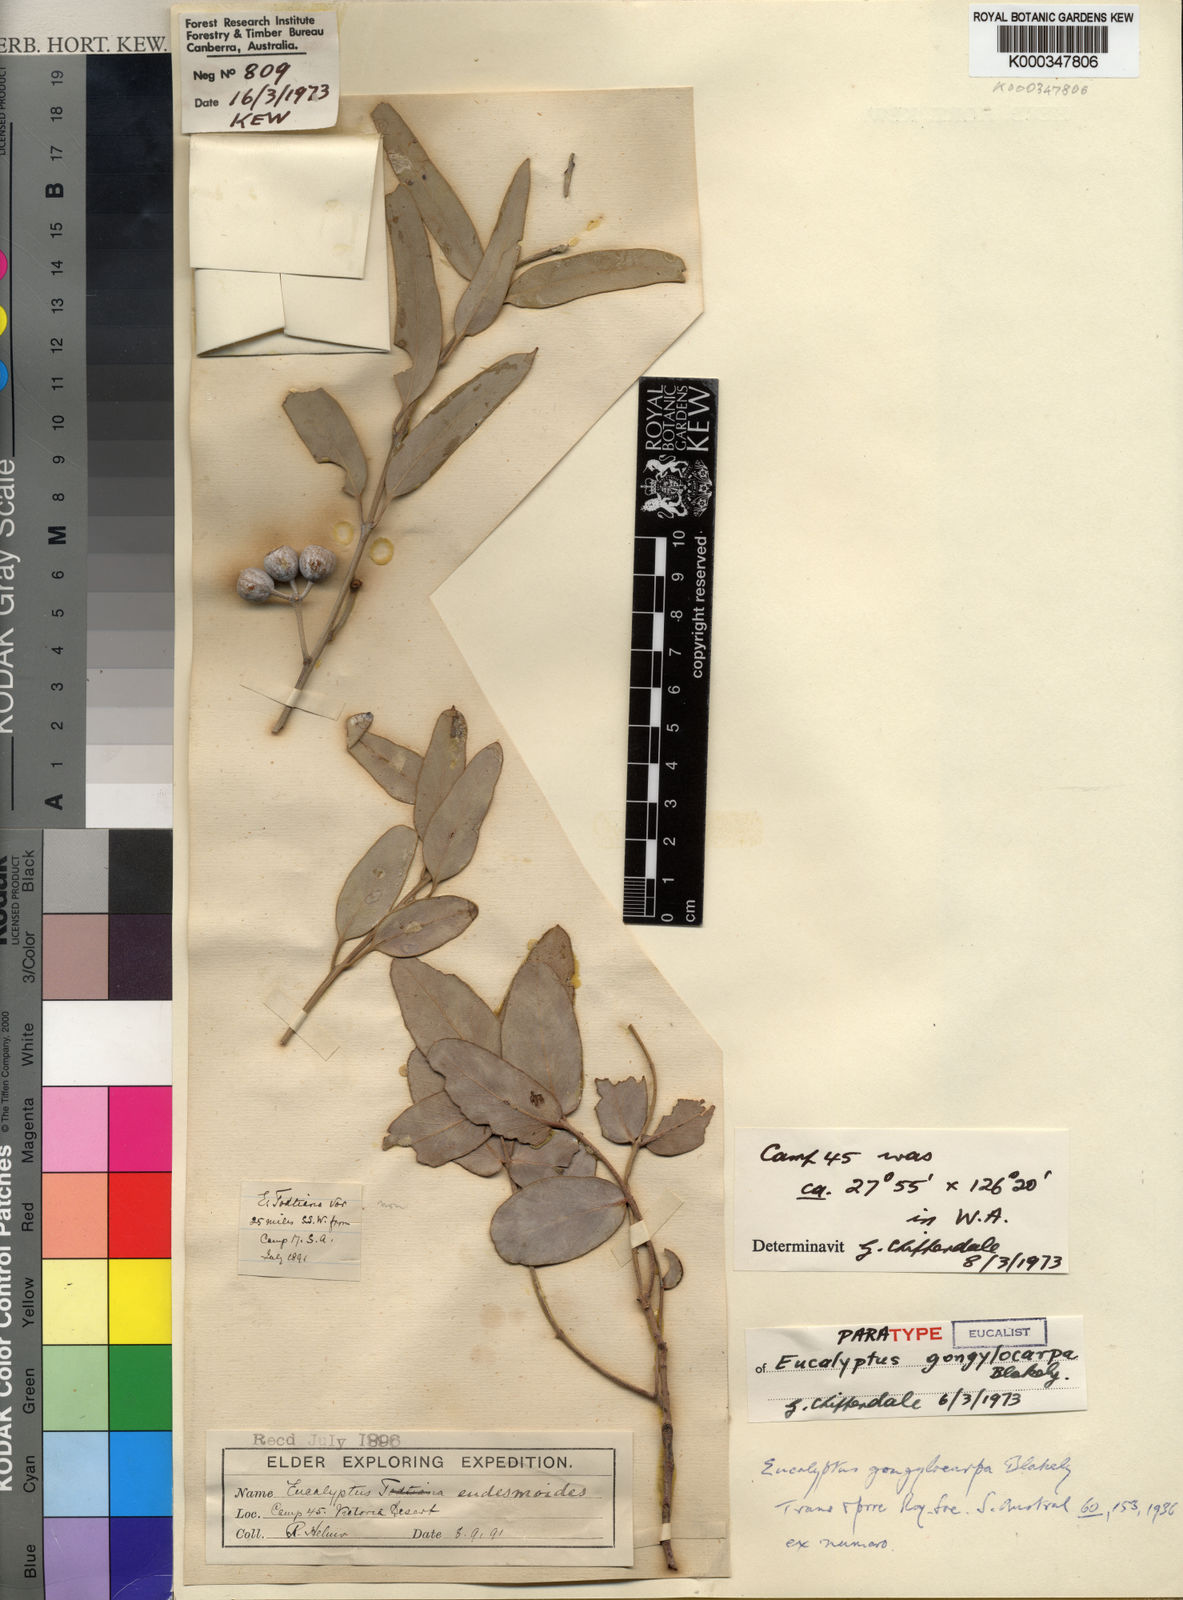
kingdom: Plantae
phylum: Tracheophyta
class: Magnoliopsida
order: Myrtales
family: Myrtaceae
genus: Eucalyptus
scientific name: Eucalyptus gongylocarpa
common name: Desert gum
